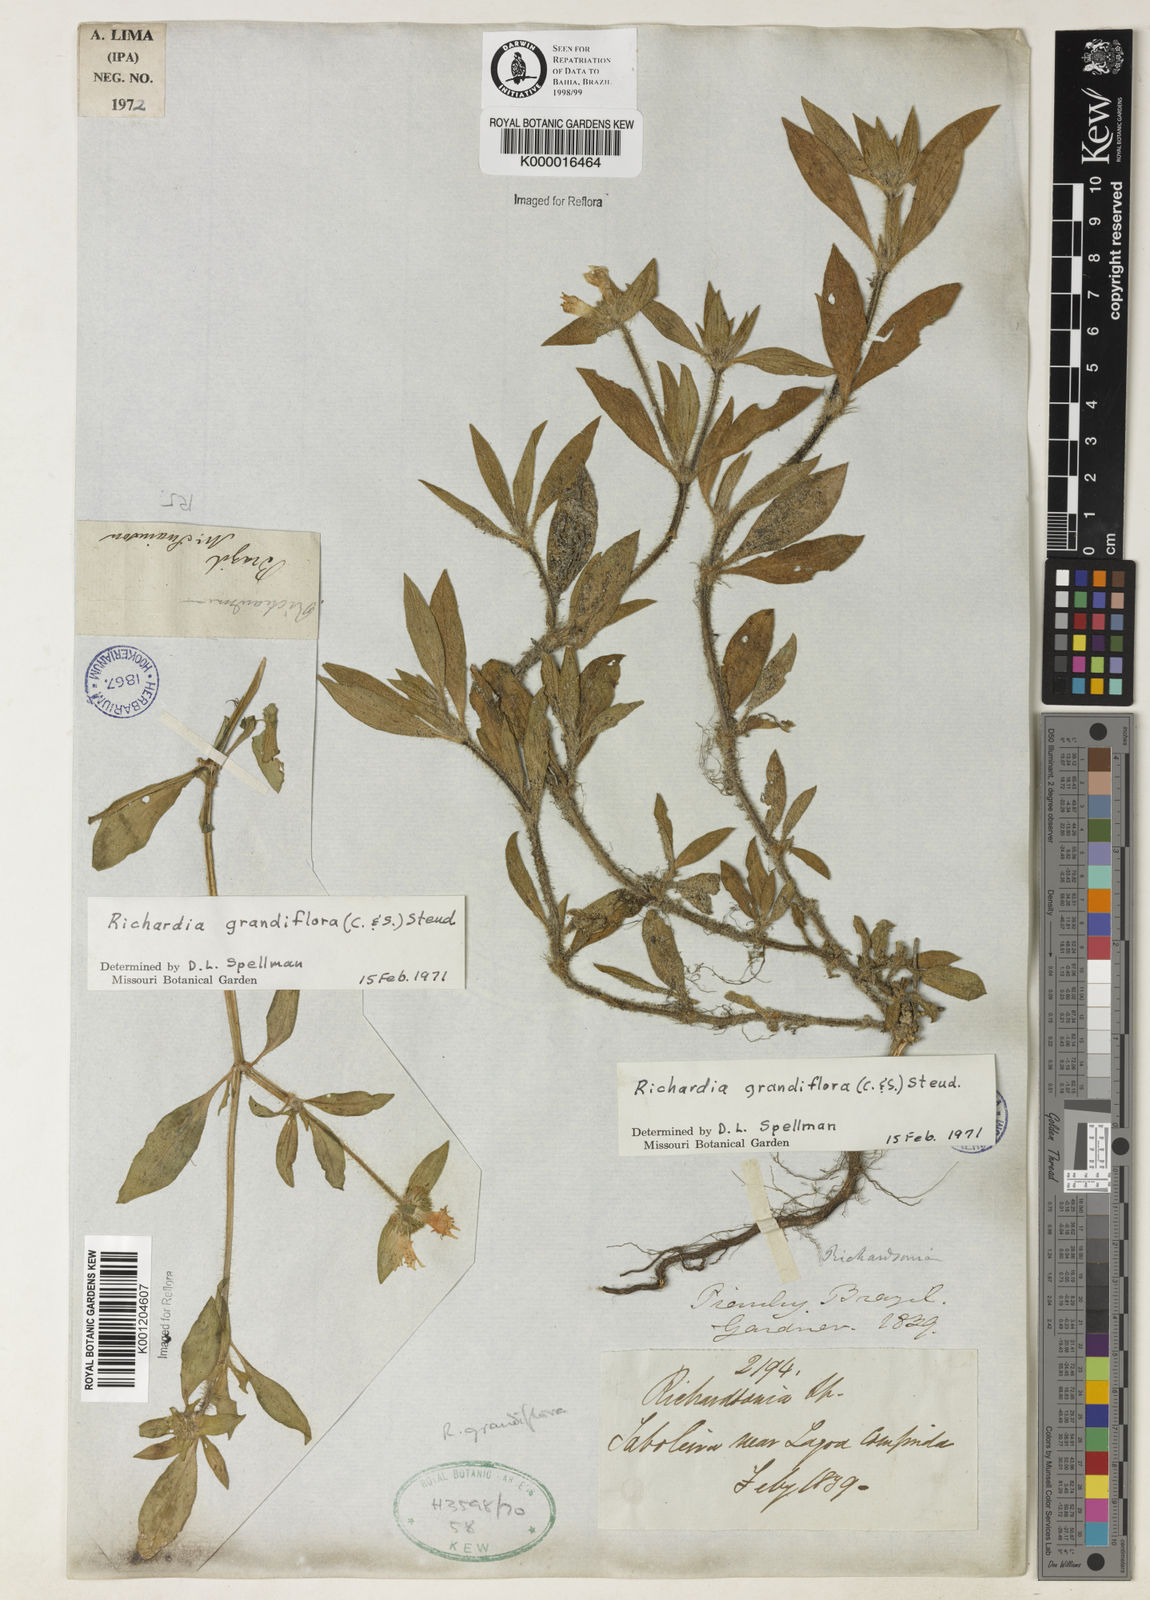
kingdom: Plantae
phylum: Tracheophyta
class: Magnoliopsida
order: Gentianales
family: Rubiaceae
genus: Richardia
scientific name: Richardia grandiflora
